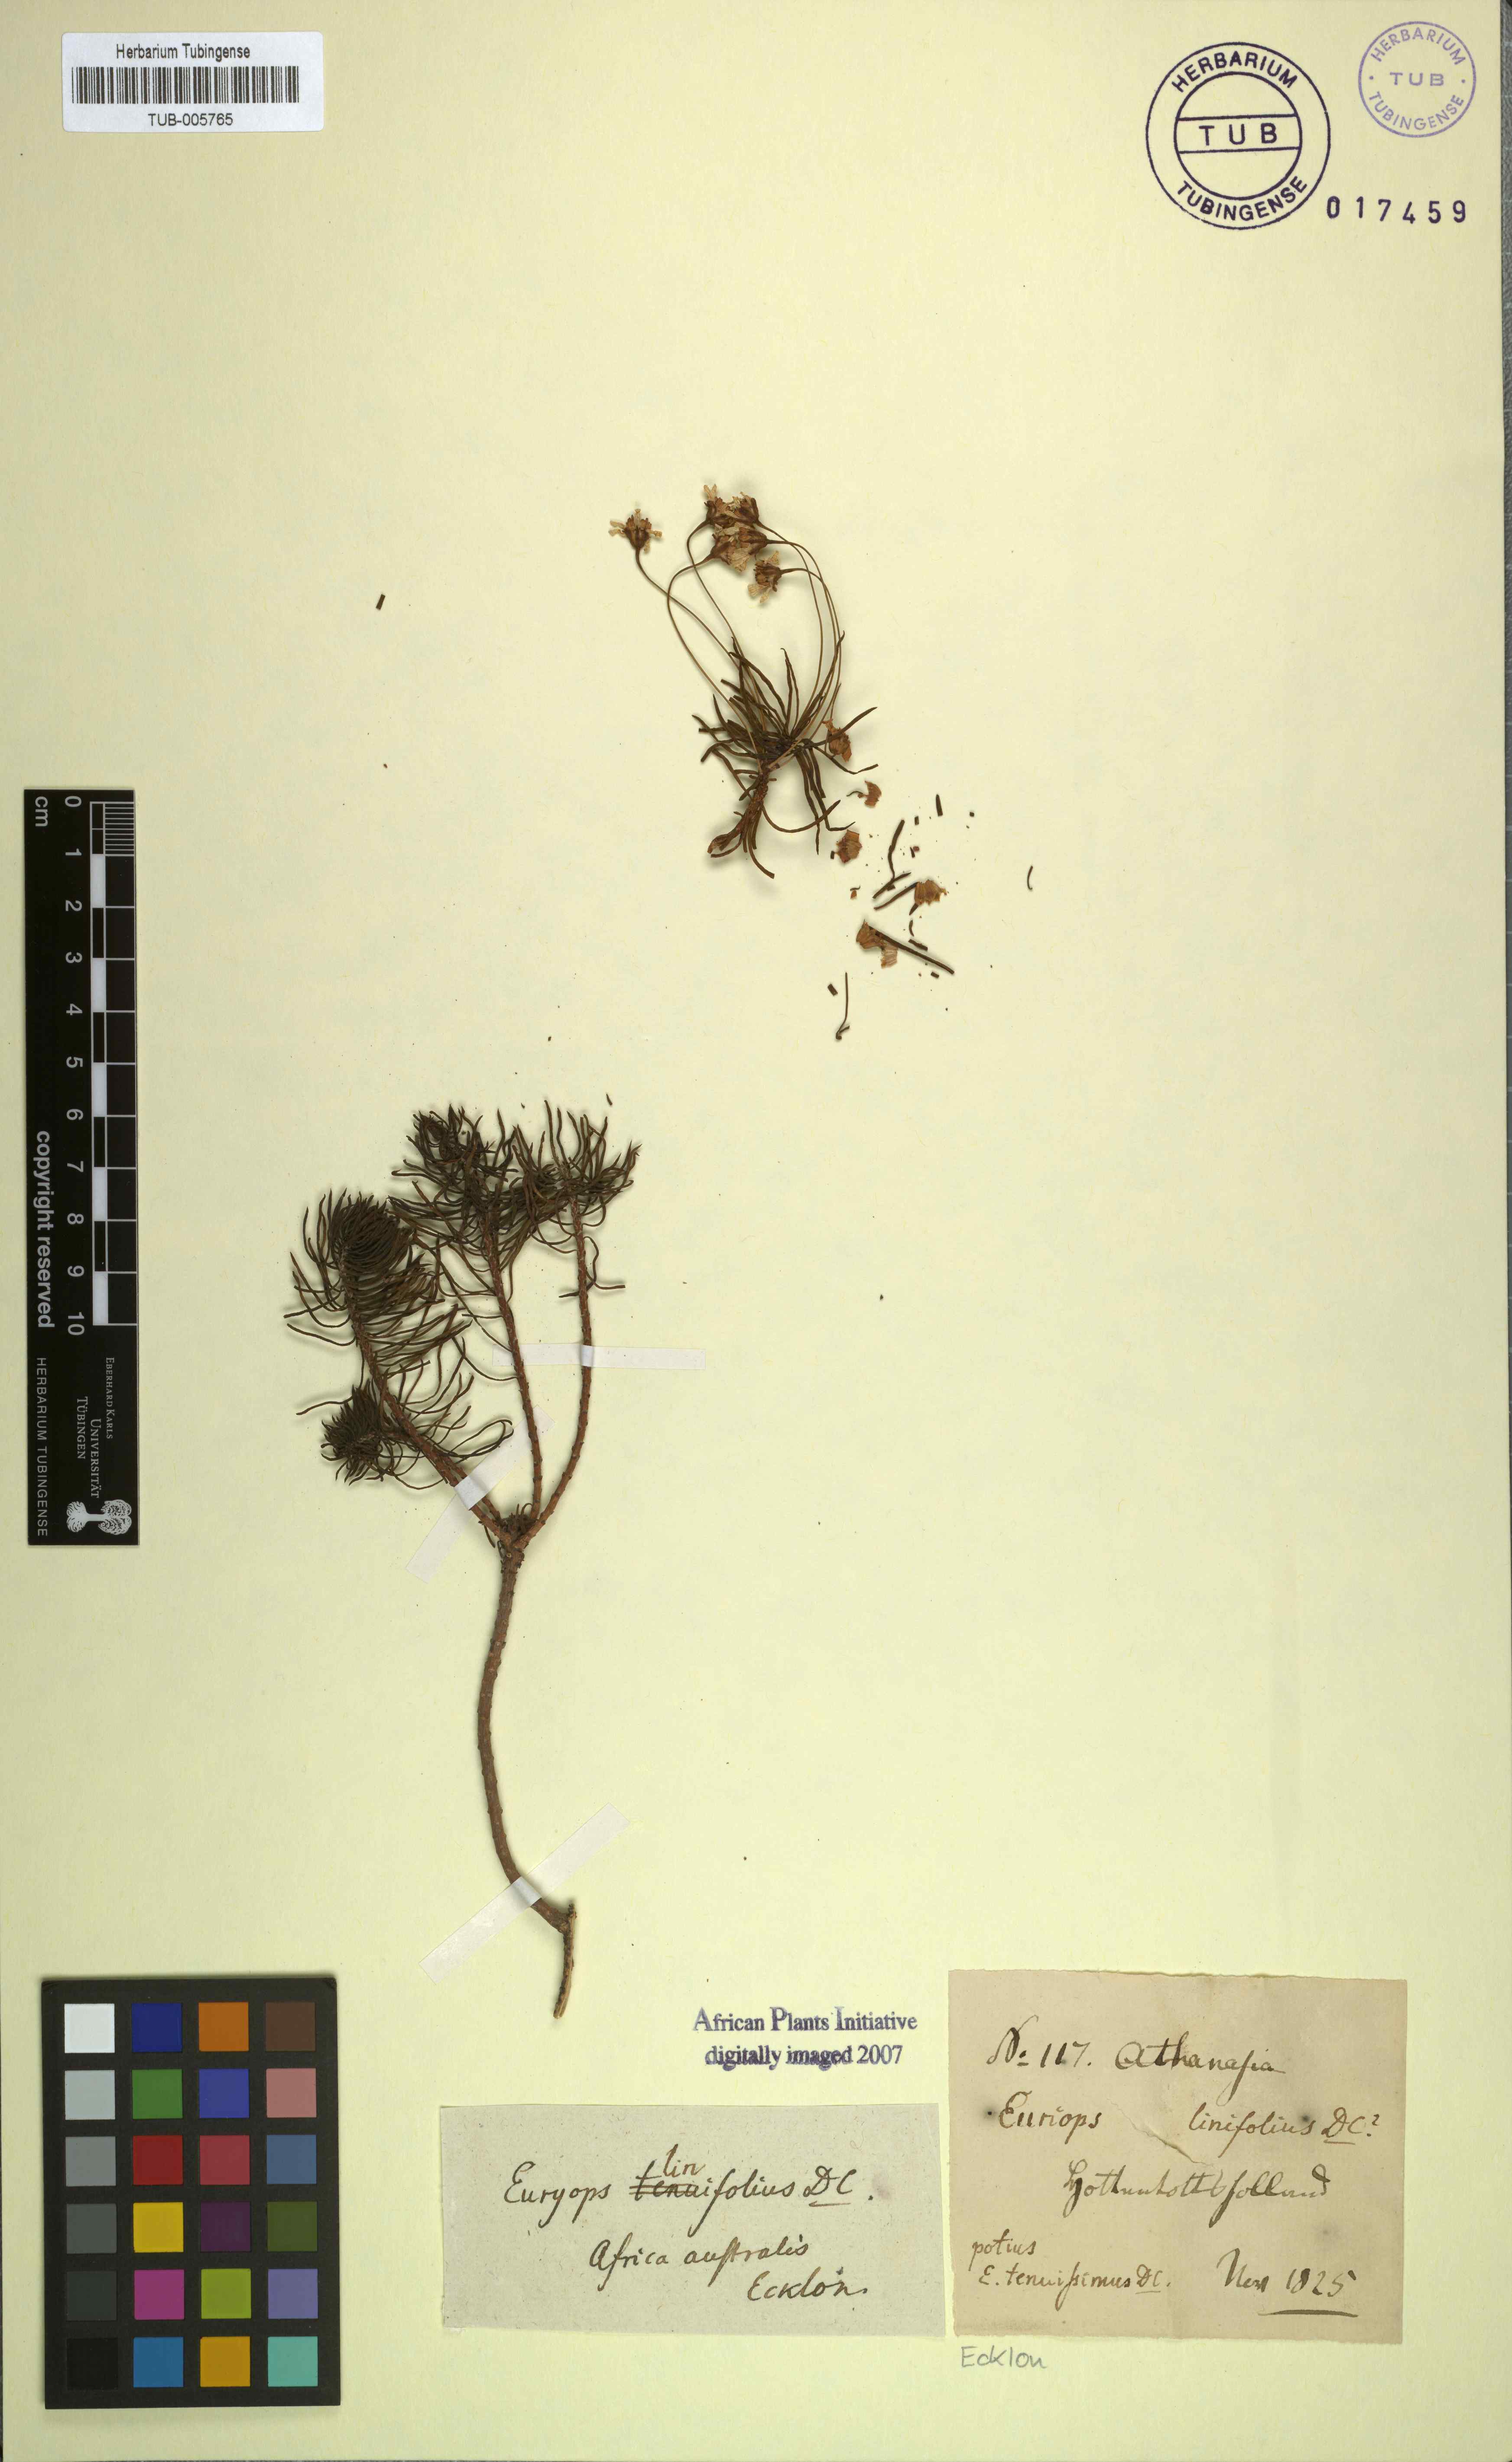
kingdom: Plantae
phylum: Tracheophyta
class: Magnoliopsida
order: Asterales
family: Asteraceae
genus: Euryops
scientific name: Euryops linifolius
